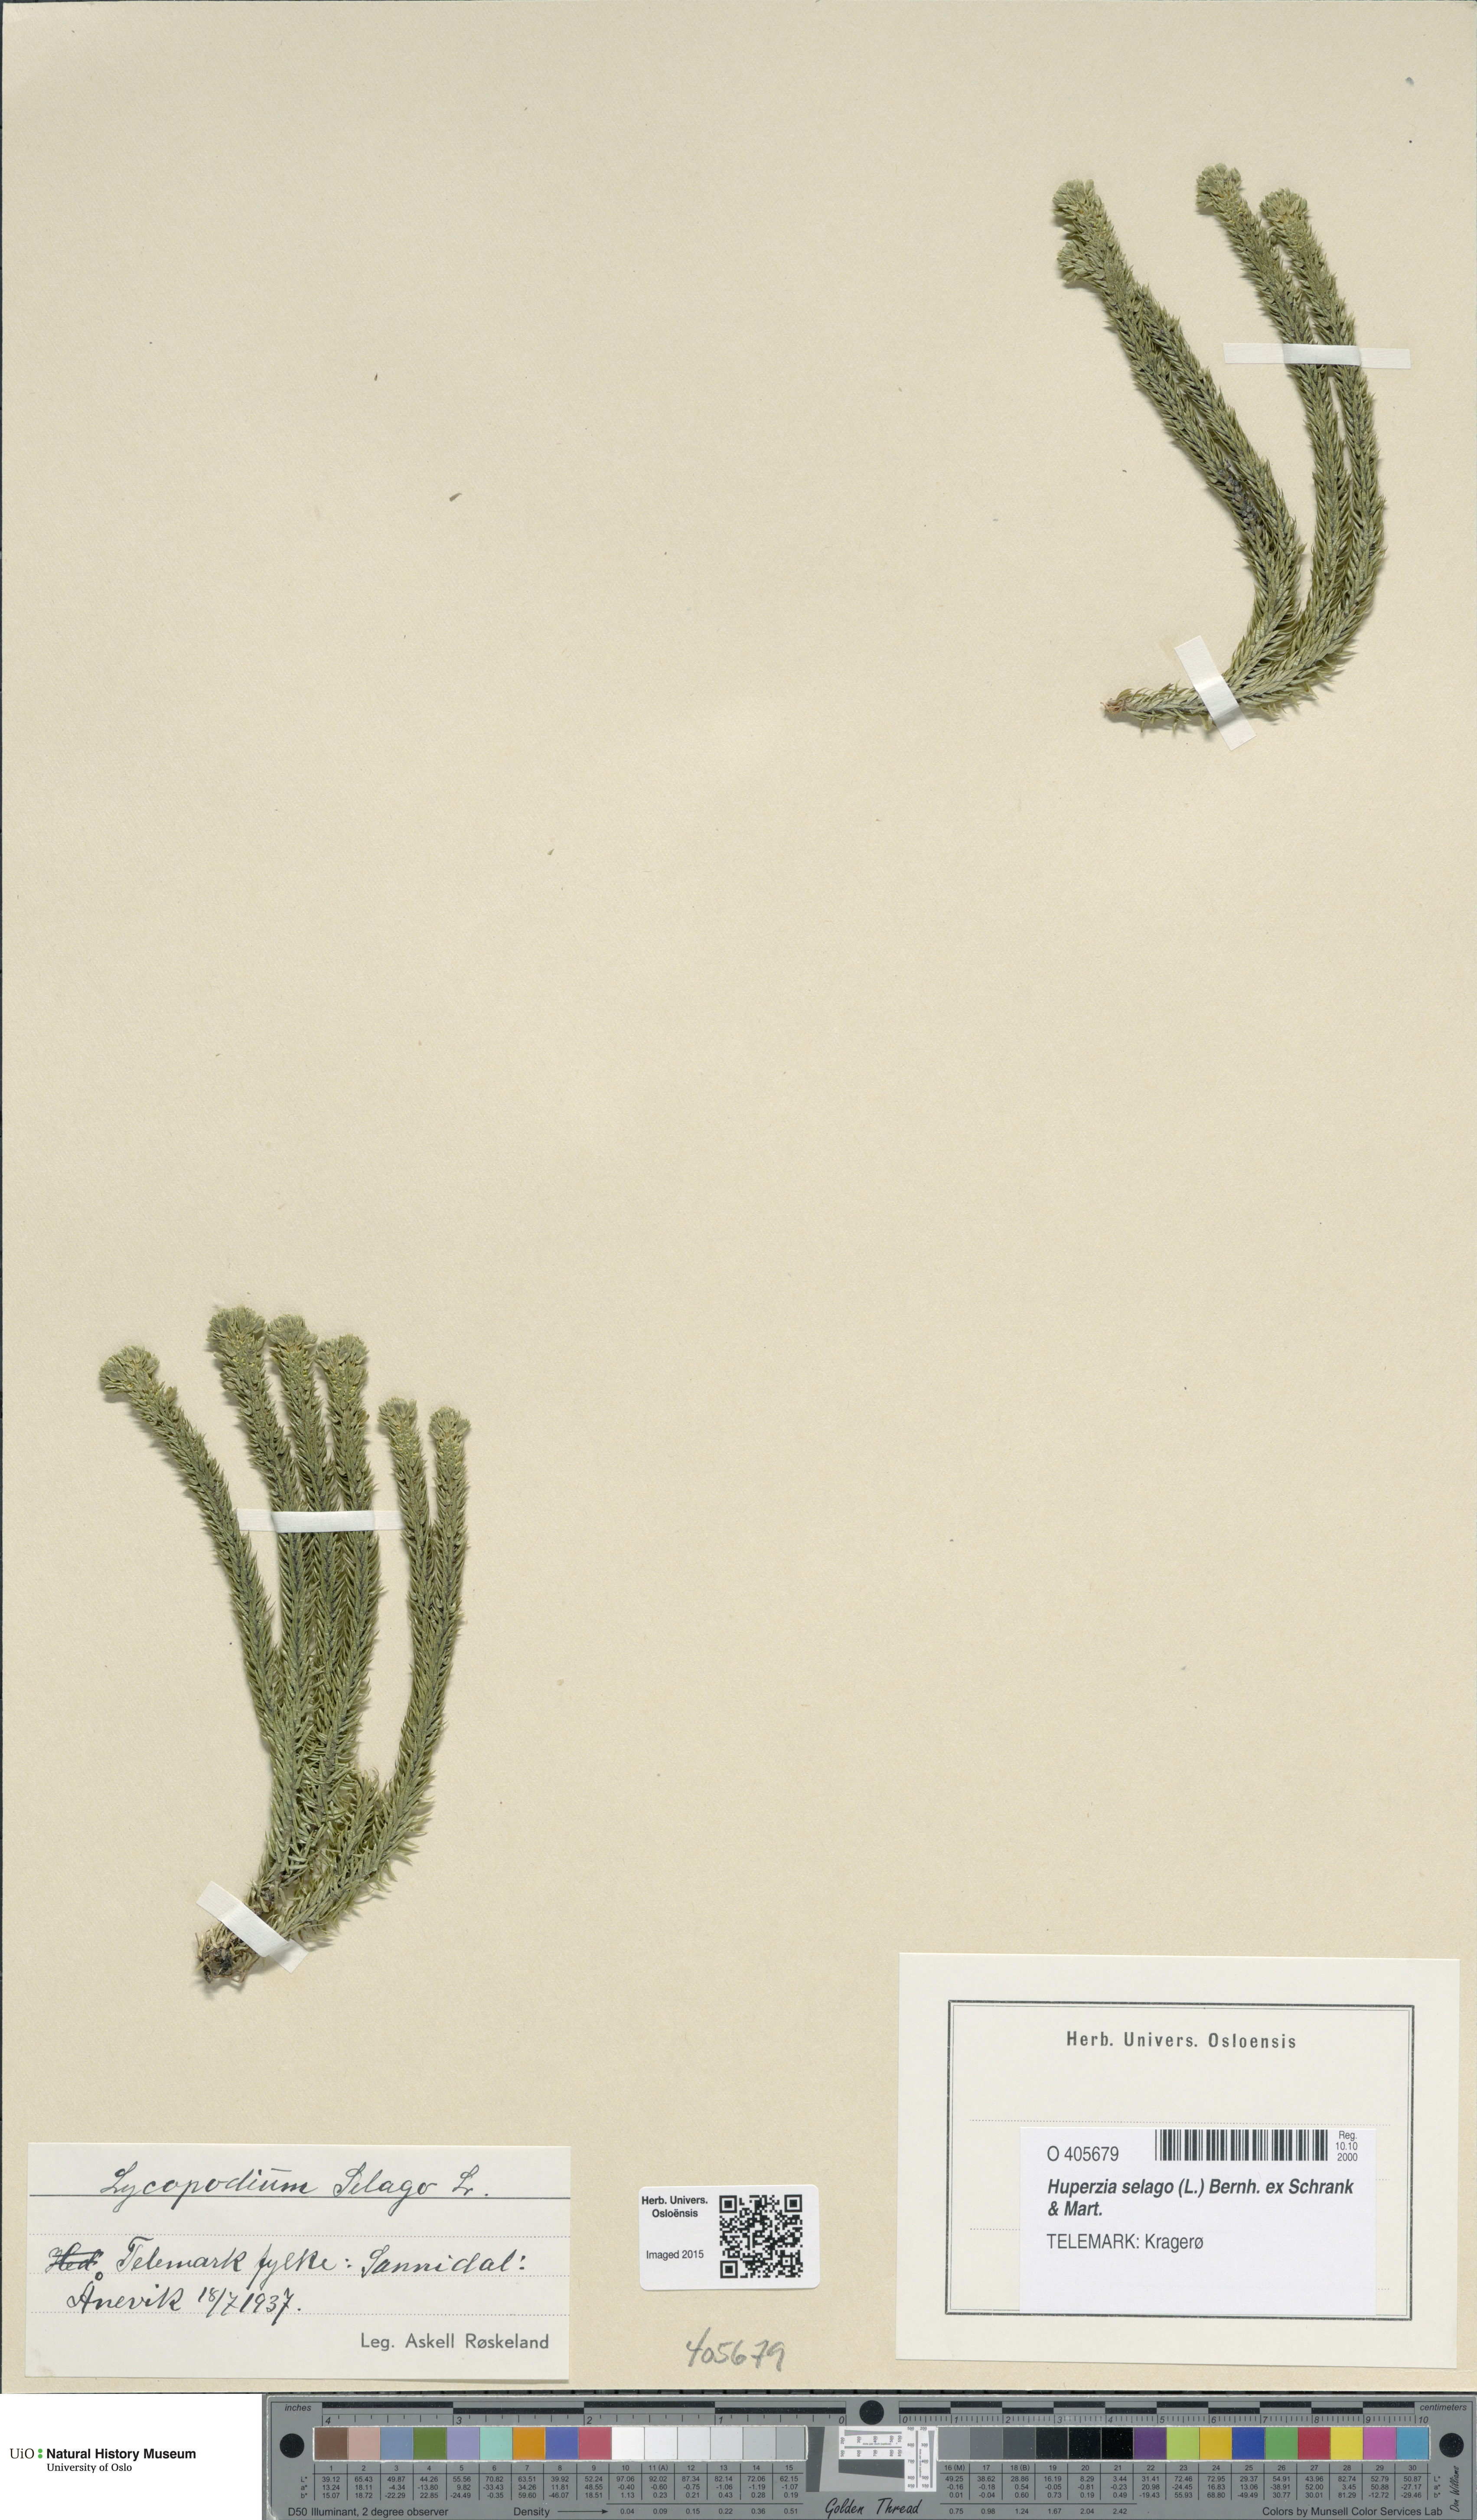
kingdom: Plantae
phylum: Tracheophyta
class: Lycopodiopsida
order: Lycopodiales
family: Lycopodiaceae
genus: Huperzia
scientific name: Huperzia selago
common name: Northern firmoss
